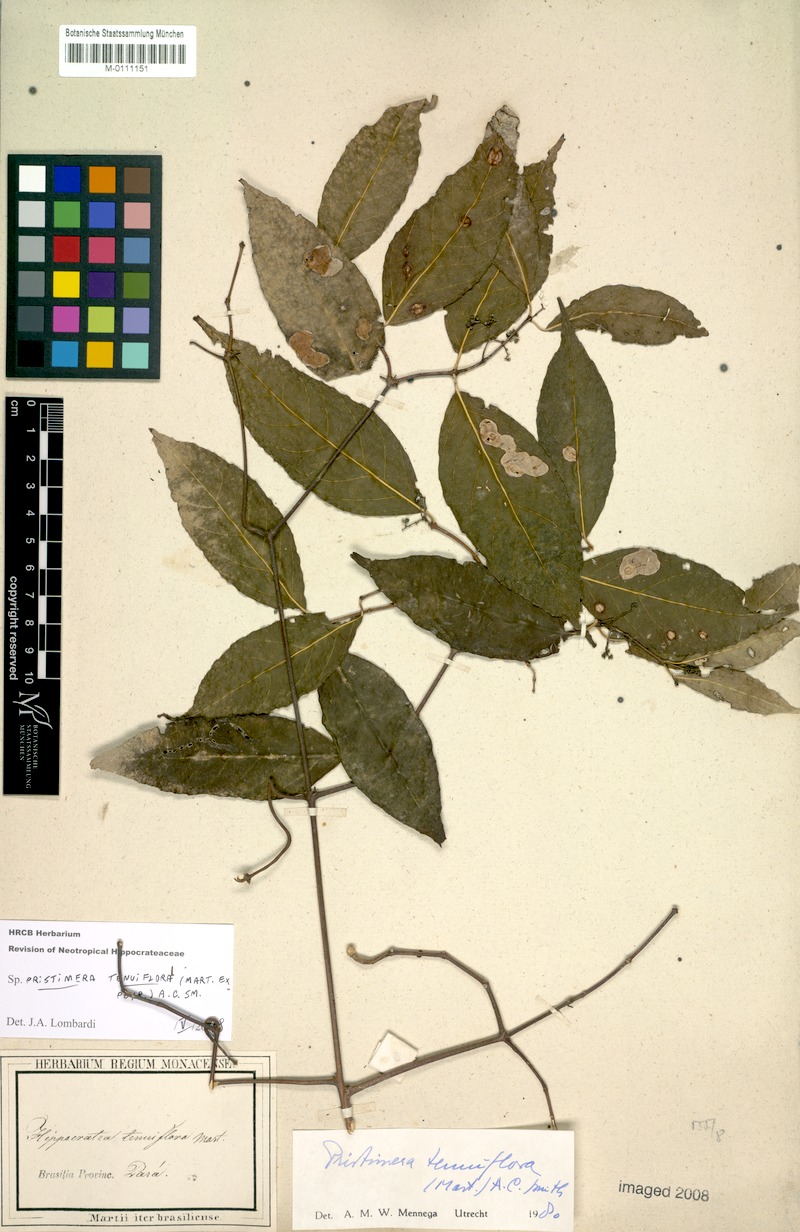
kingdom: Plantae
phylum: Tracheophyta
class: Magnoliopsida
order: Celastrales
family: Celastraceae
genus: Pristimera
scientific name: Pristimera tenuiflora
